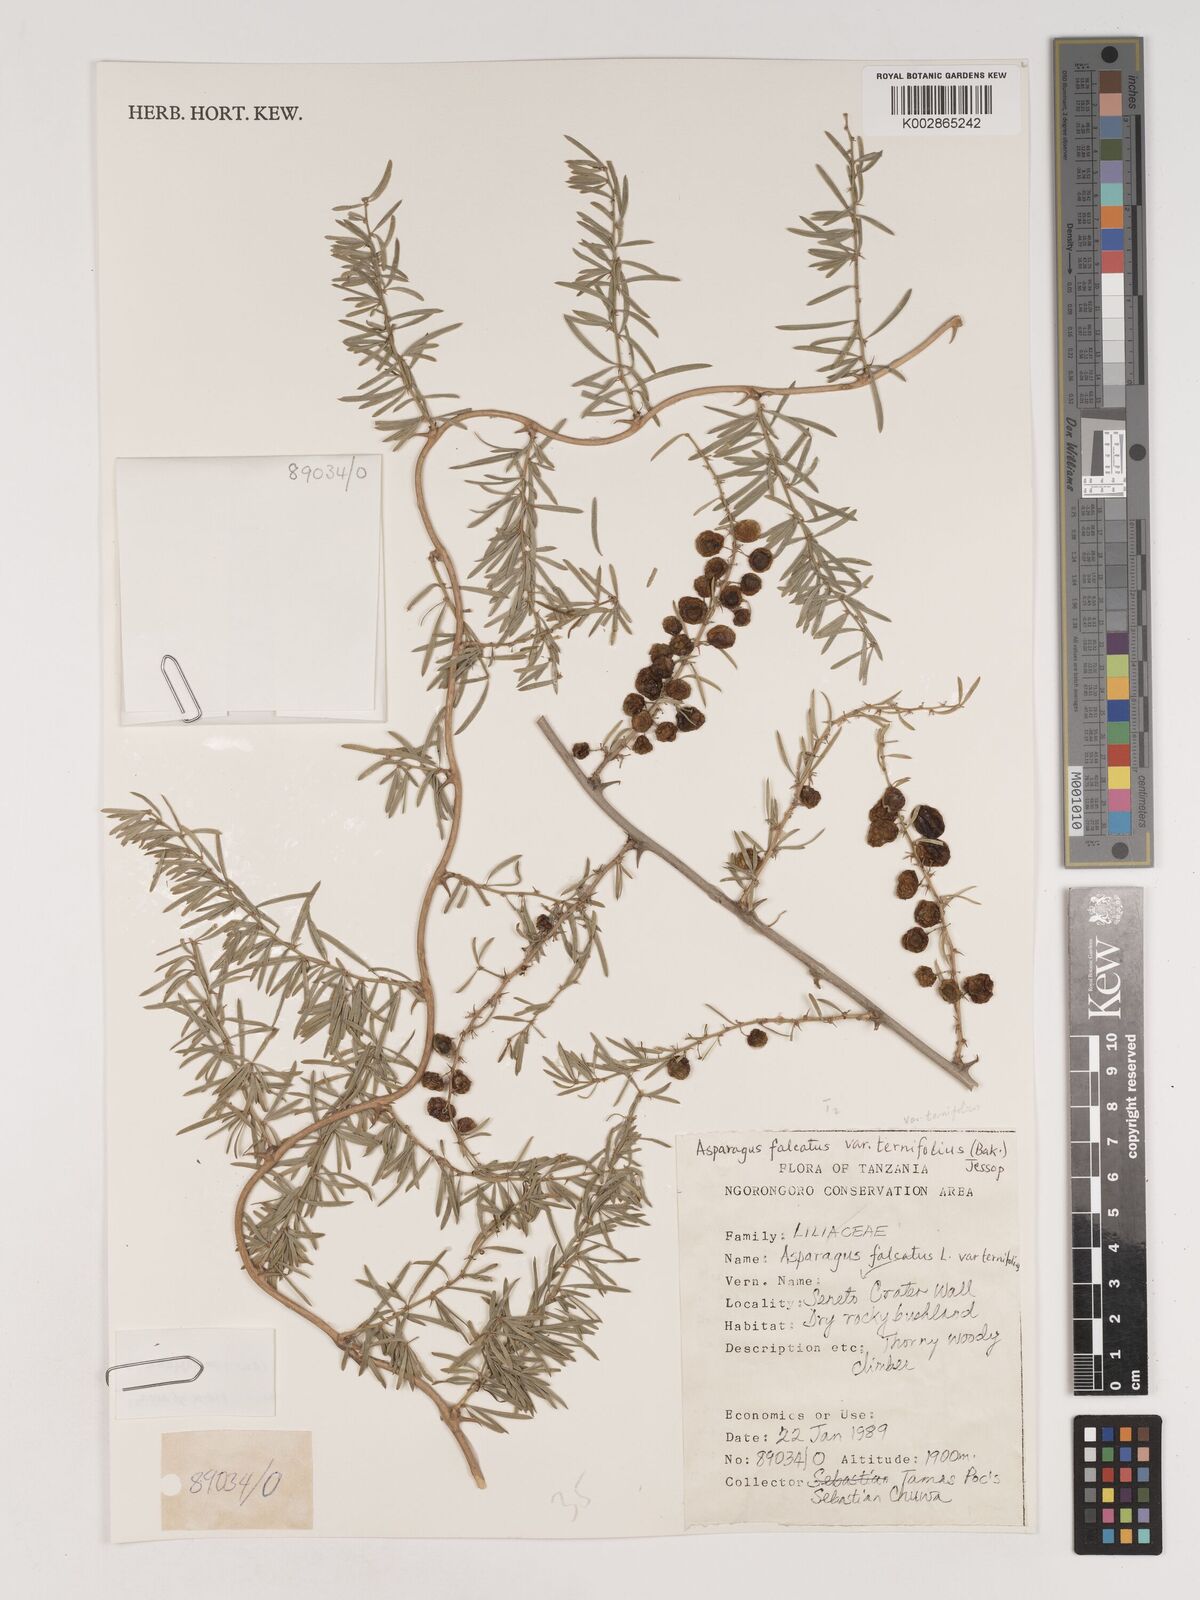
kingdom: Plantae
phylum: Tracheophyta
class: Liliopsida
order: Asparagales
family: Asparagaceae
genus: Asparagus
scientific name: Asparagus natalensis
